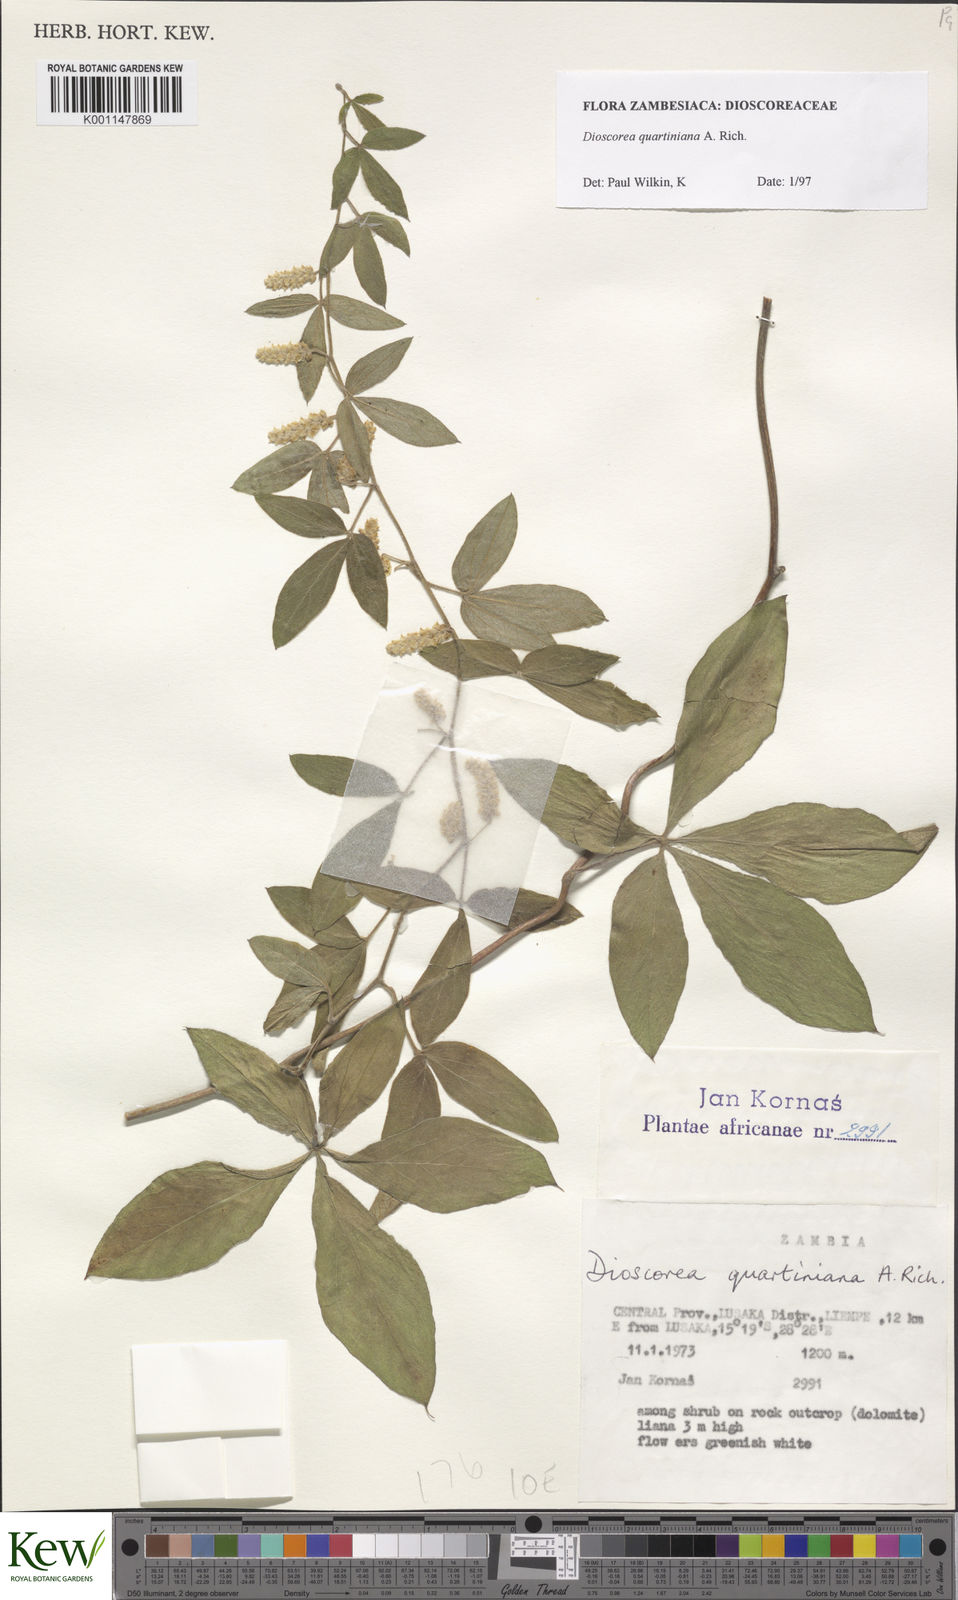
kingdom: Plantae
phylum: Tracheophyta
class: Liliopsida
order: Dioscoreales
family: Dioscoreaceae
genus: Dioscorea
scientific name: Dioscorea quartiniana
